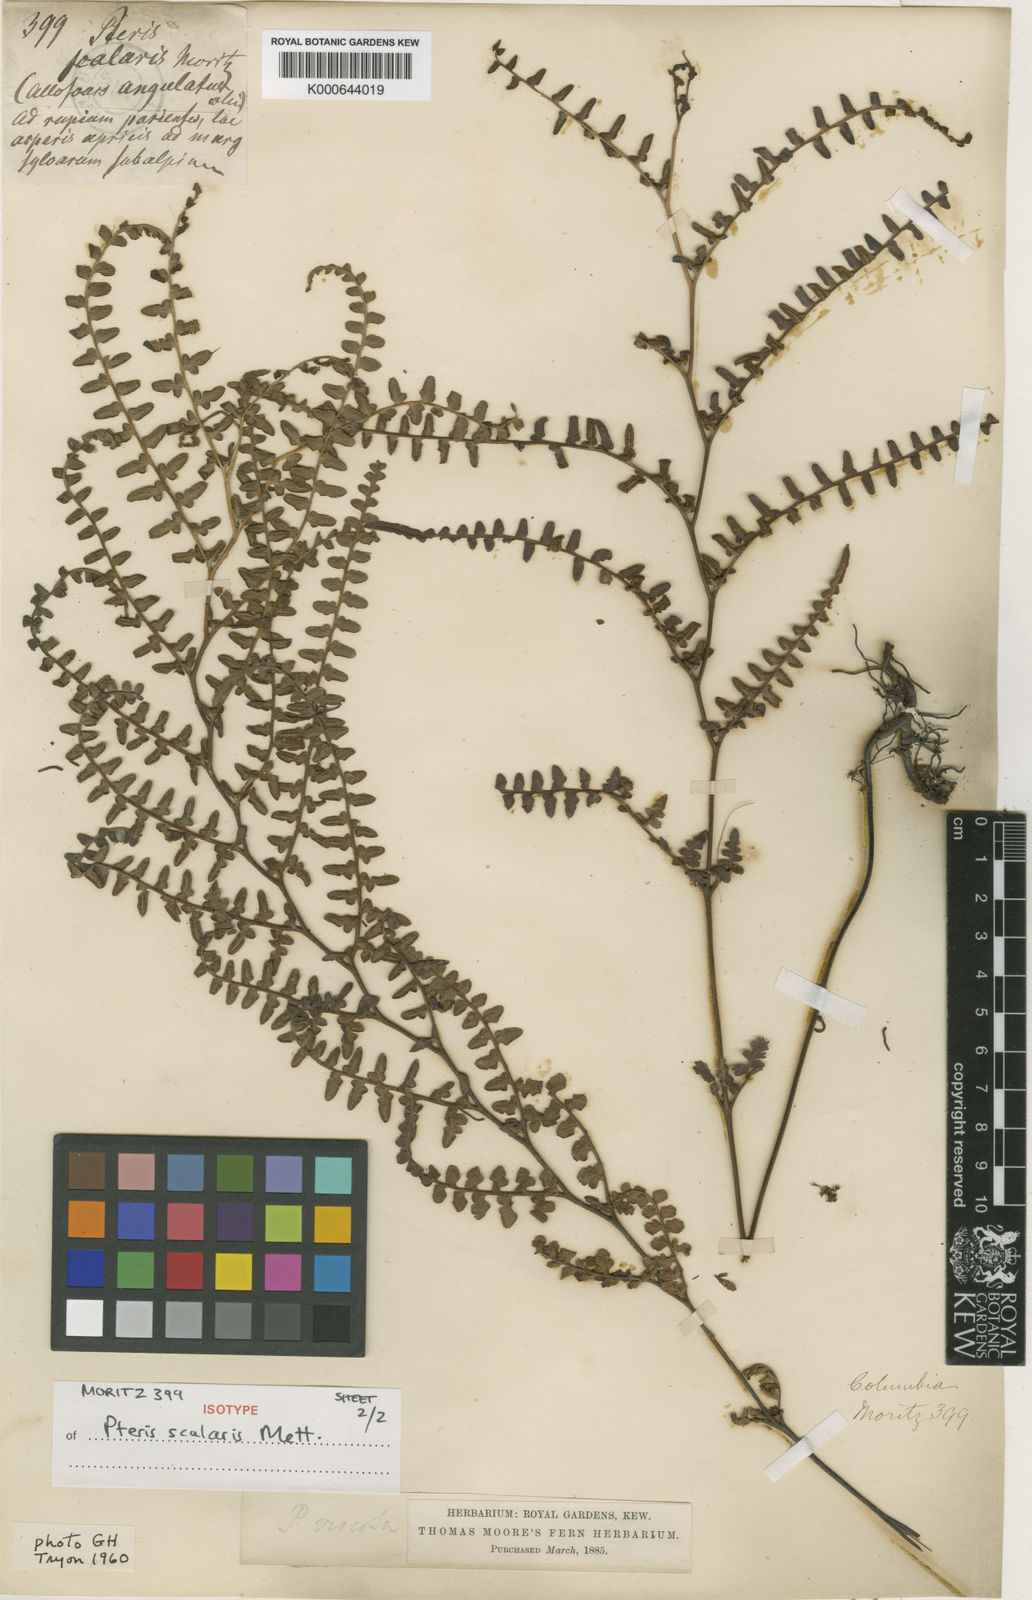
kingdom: Plantae
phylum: Tracheophyta
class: Polypodiopsida
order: Polypodiales
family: Dennstaedtiaceae
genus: Paesia
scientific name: Paesia glandulosa
